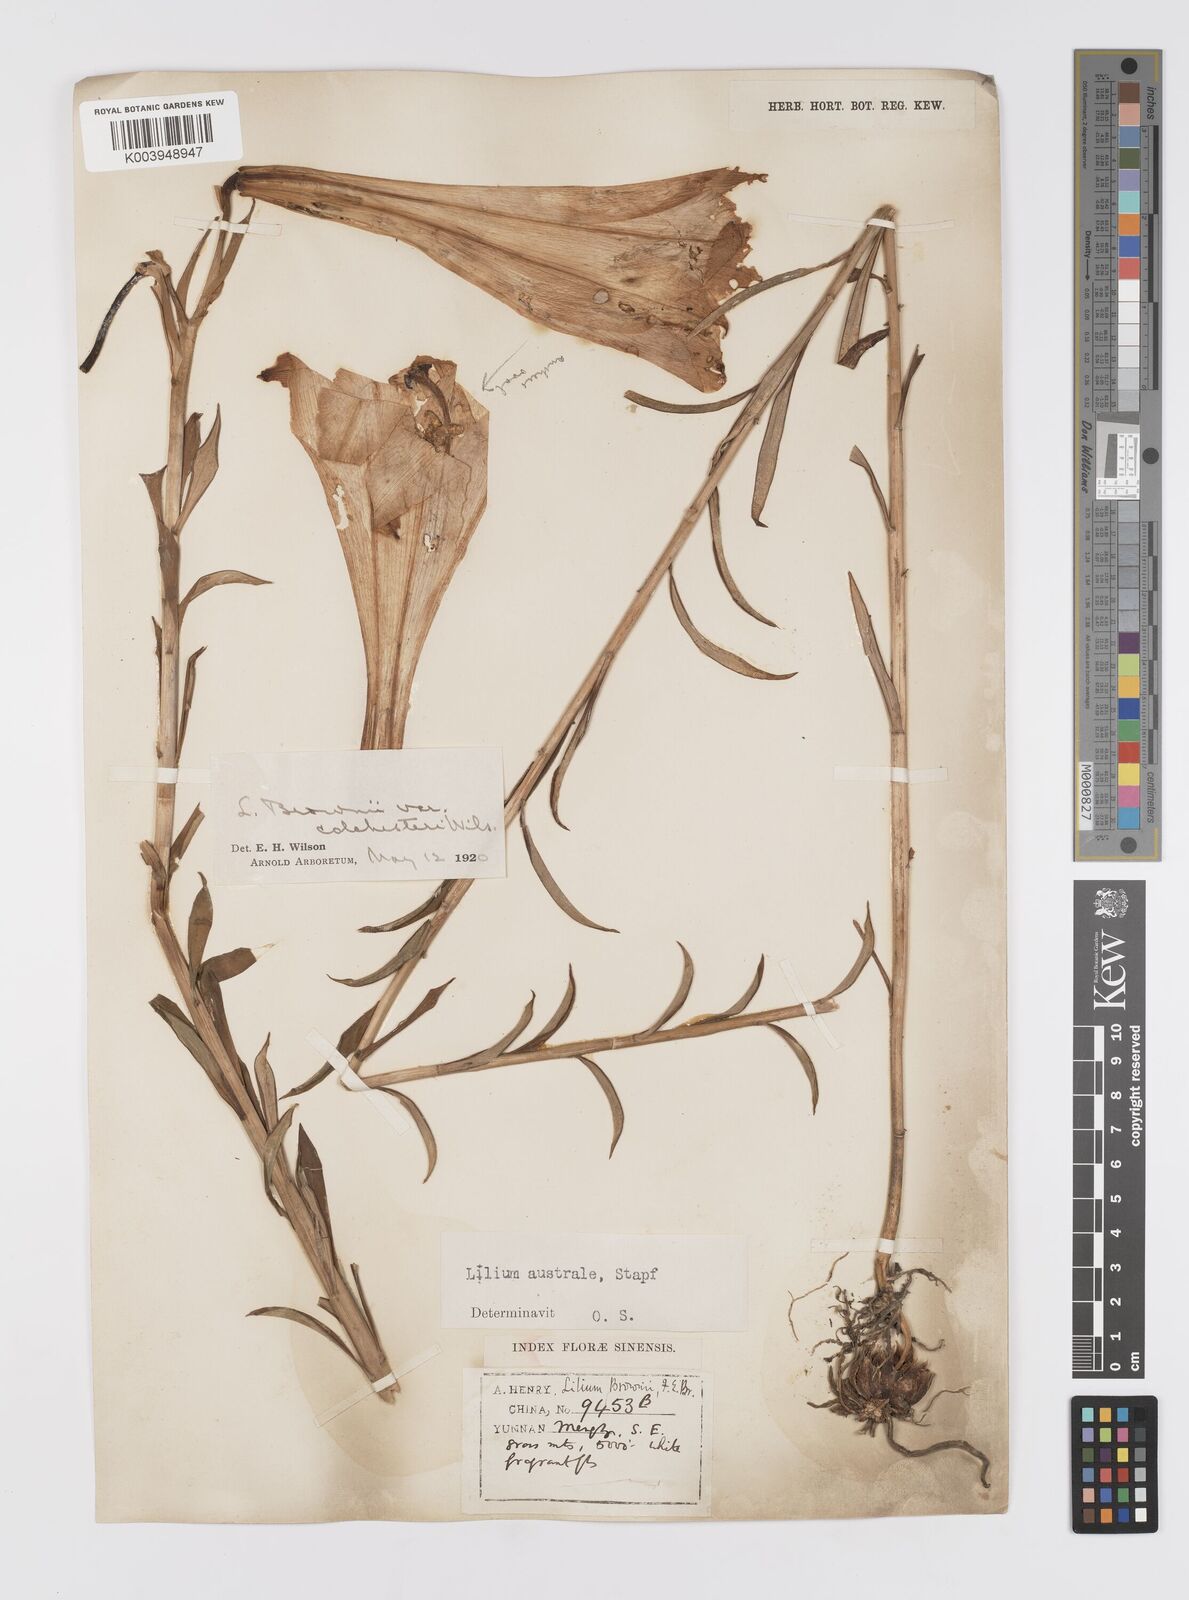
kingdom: Plantae
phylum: Tracheophyta
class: Liliopsida
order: Liliales
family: Liliaceae
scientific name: Liliaceae
